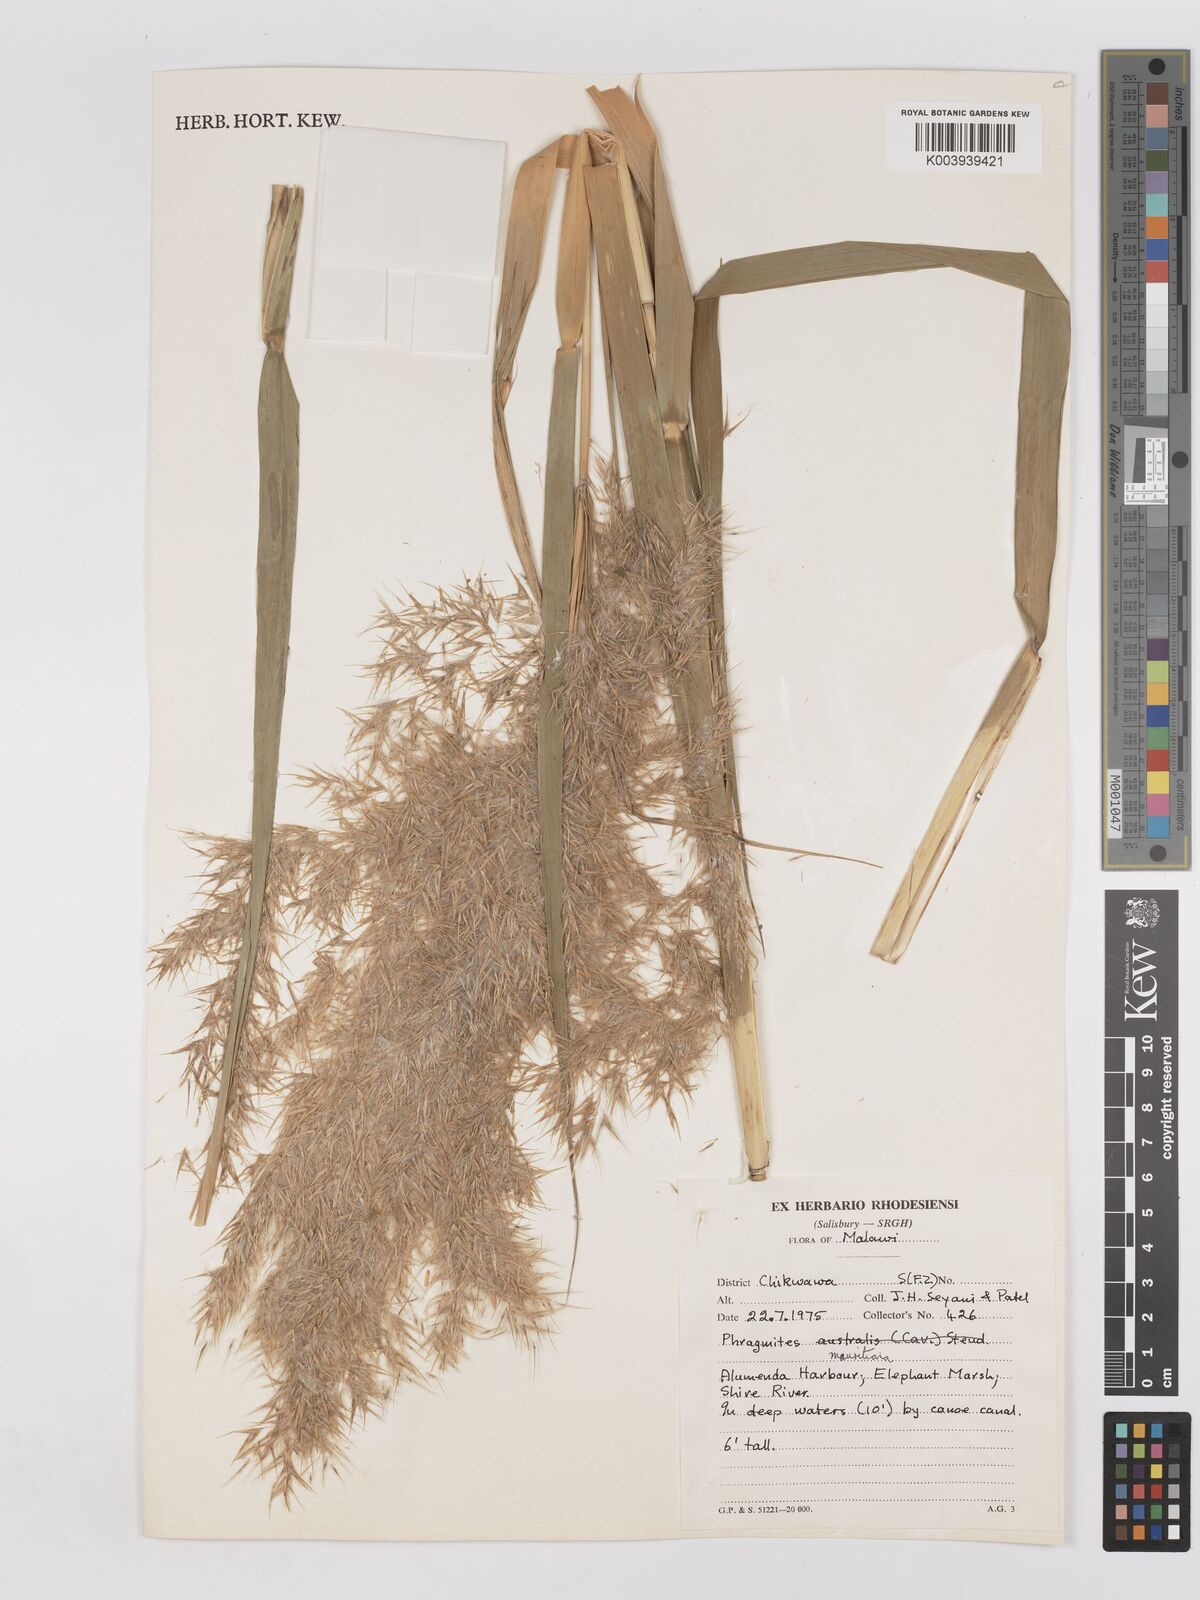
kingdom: Plantae
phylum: Tracheophyta
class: Liliopsida
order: Poales
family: Poaceae
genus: Phragmites
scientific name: Phragmites mauritianus
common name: Reed grass
